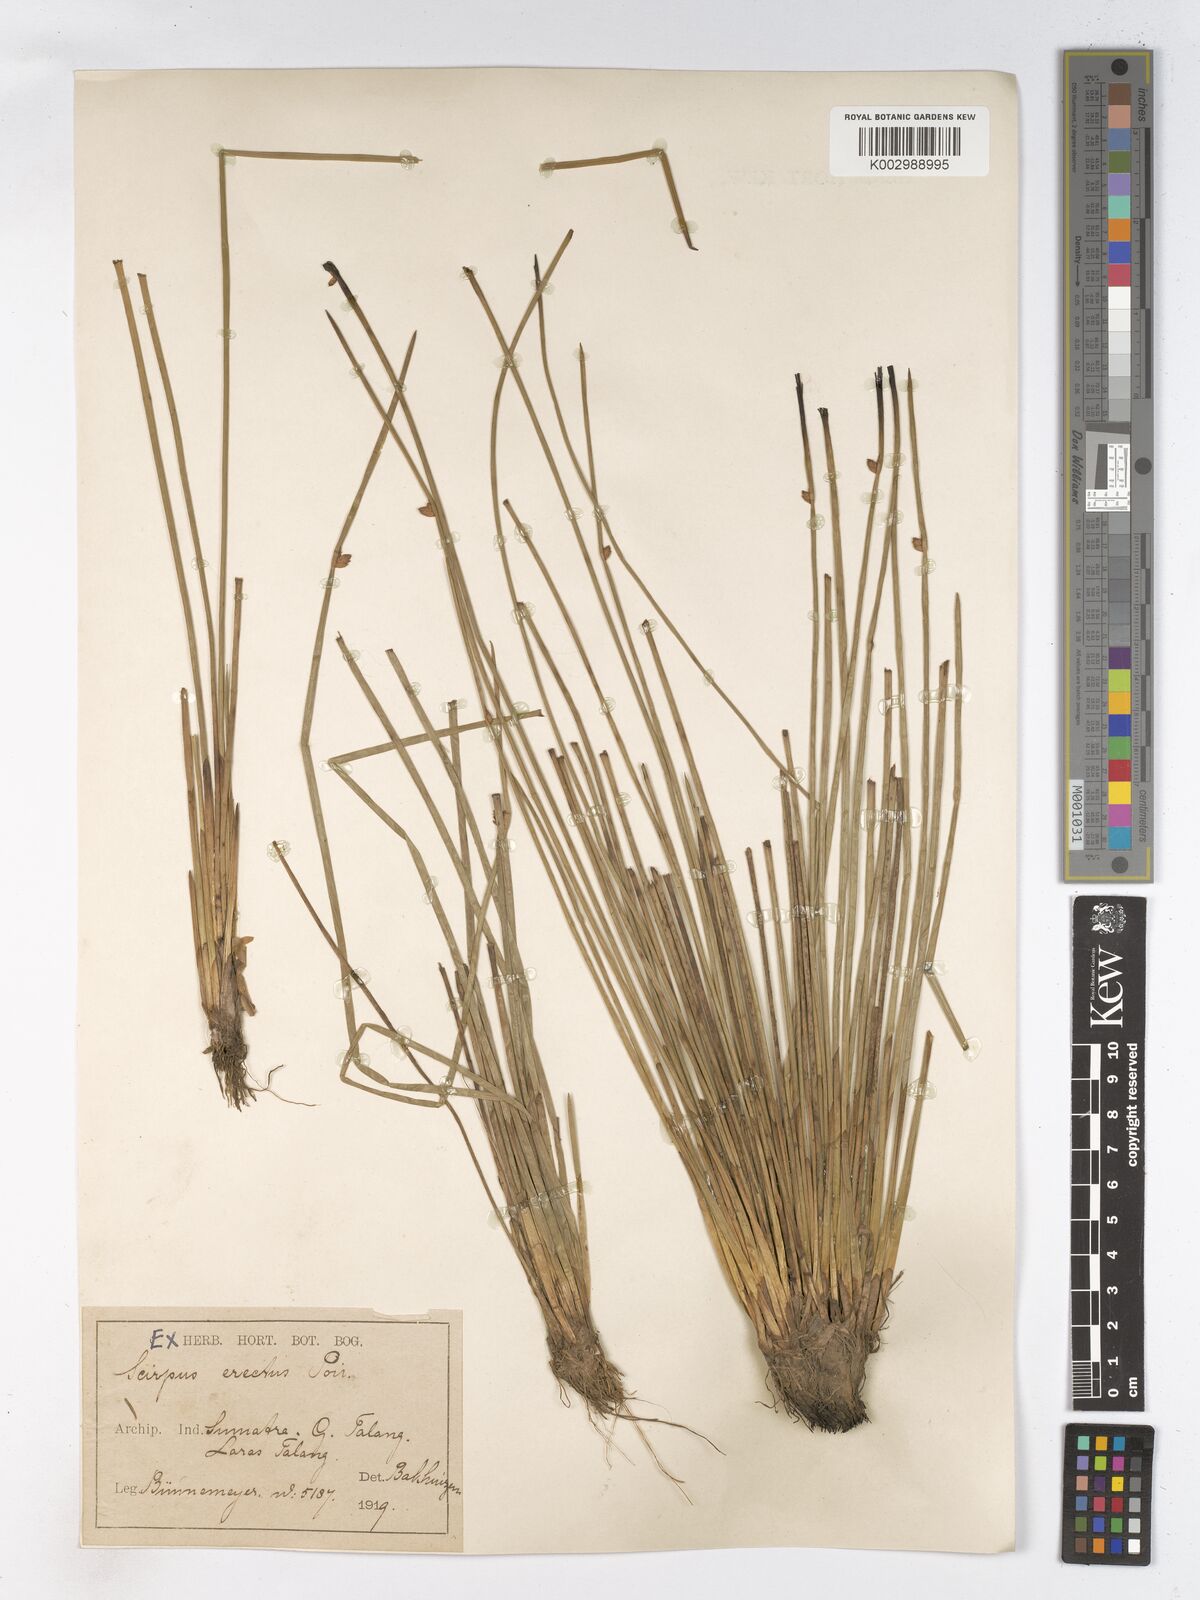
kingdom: Plantae
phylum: Tracheophyta
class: Liliopsida
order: Poales
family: Cyperaceae
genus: Schoenoplectiella
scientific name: Schoenoplectiella juncoides
